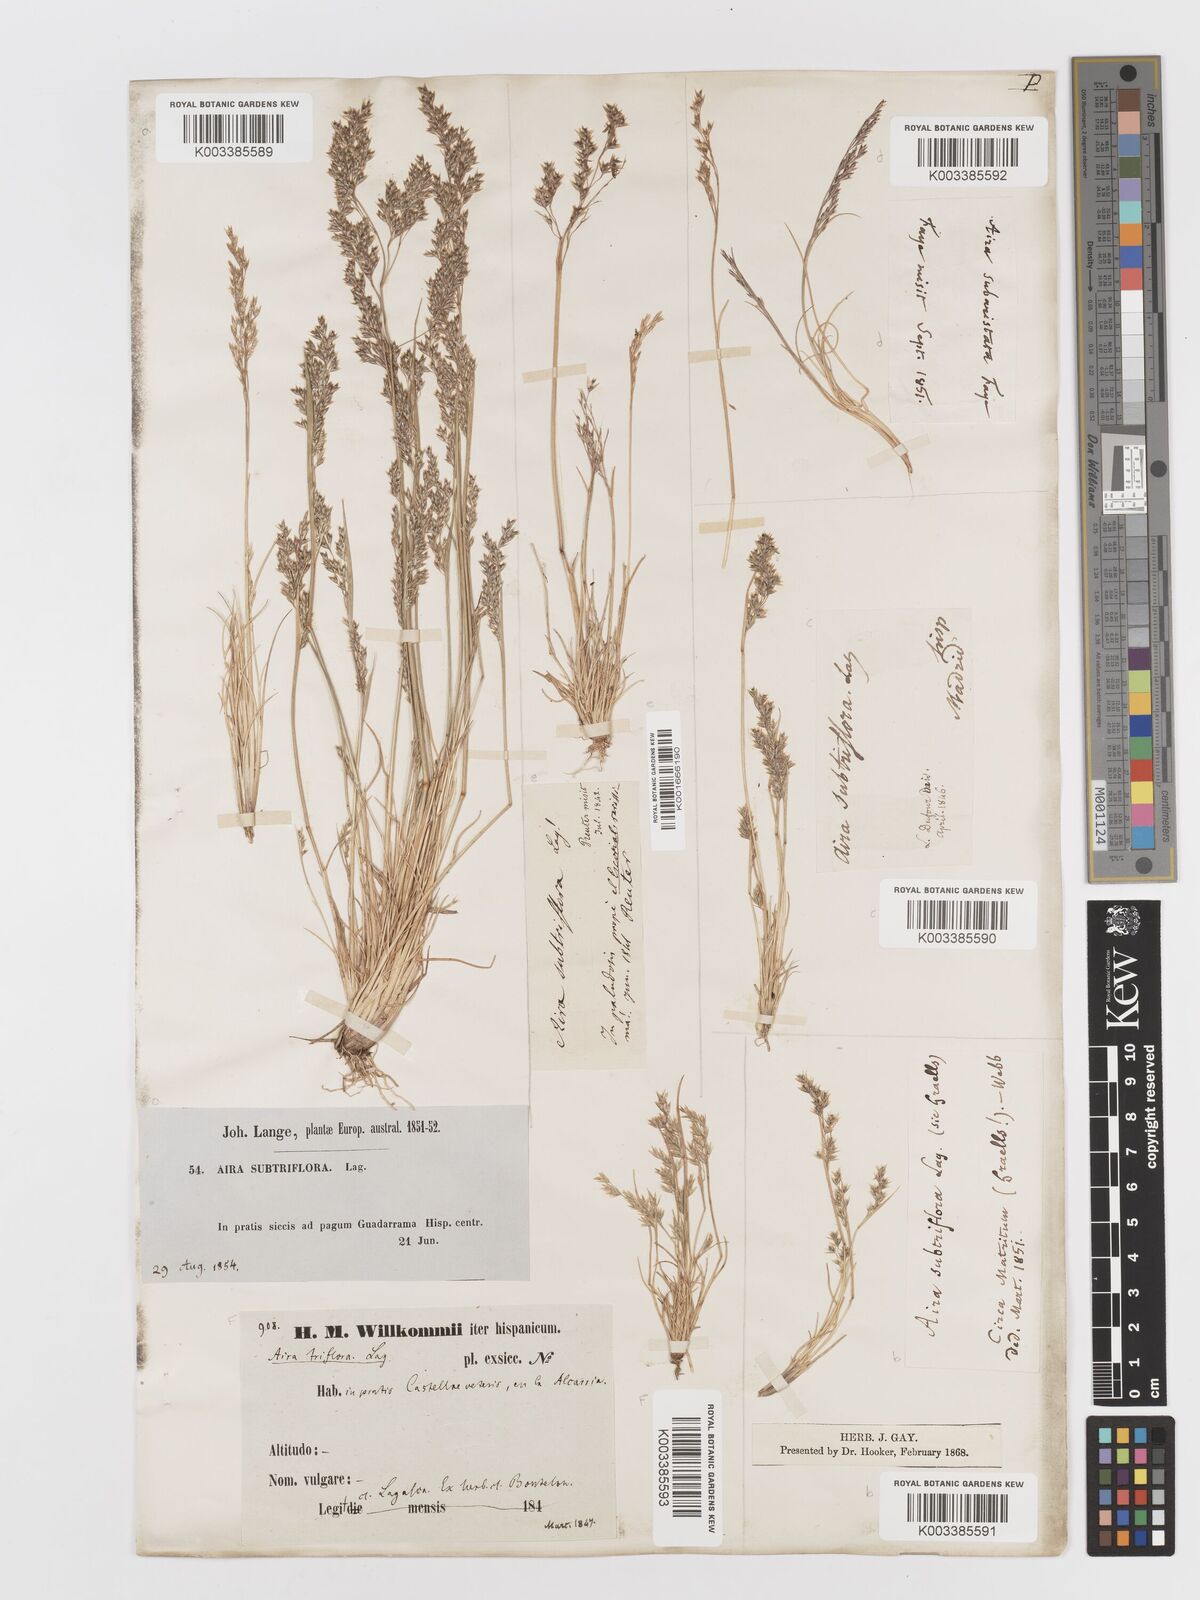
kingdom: Plantae
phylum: Tracheophyta
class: Liliopsida
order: Poales
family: Poaceae
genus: Deschampsia
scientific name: Deschampsia media
